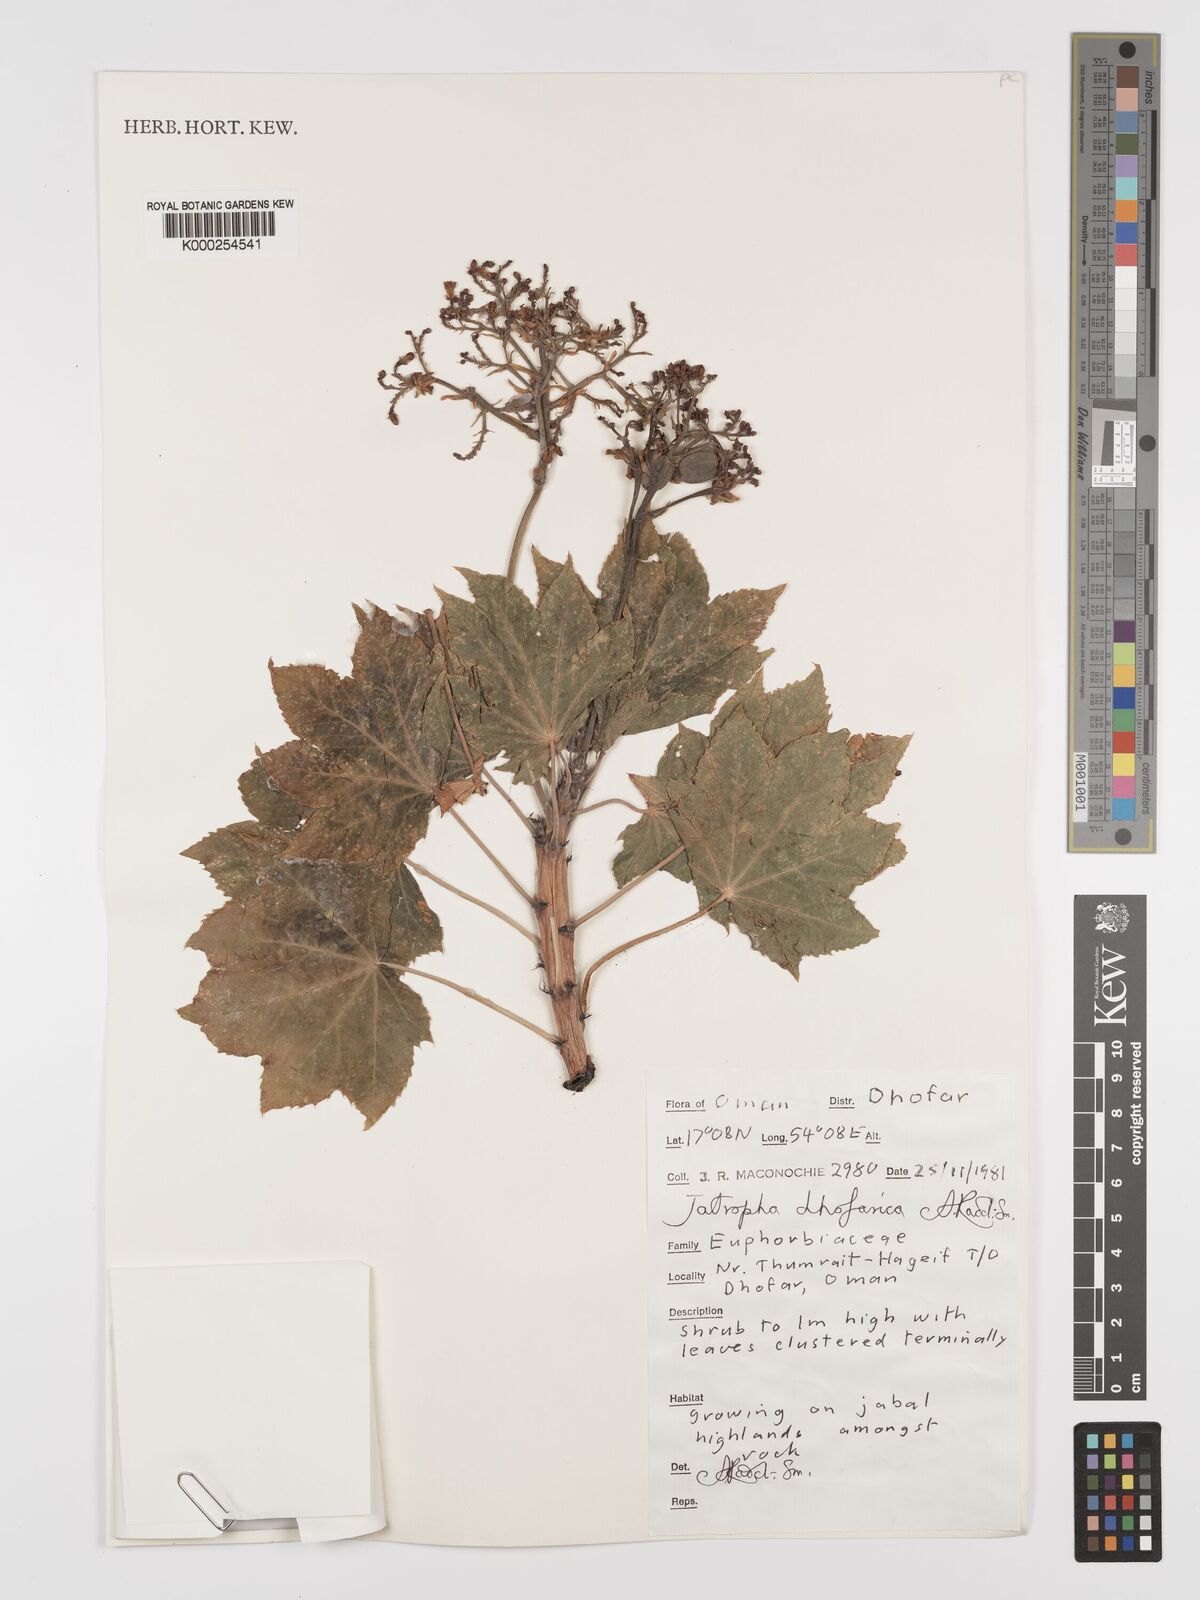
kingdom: Plantae
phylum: Tracheophyta
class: Magnoliopsida
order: Malpighiales
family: Euphorbiaceae
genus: Jatropha
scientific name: Jatropha dhofarica
